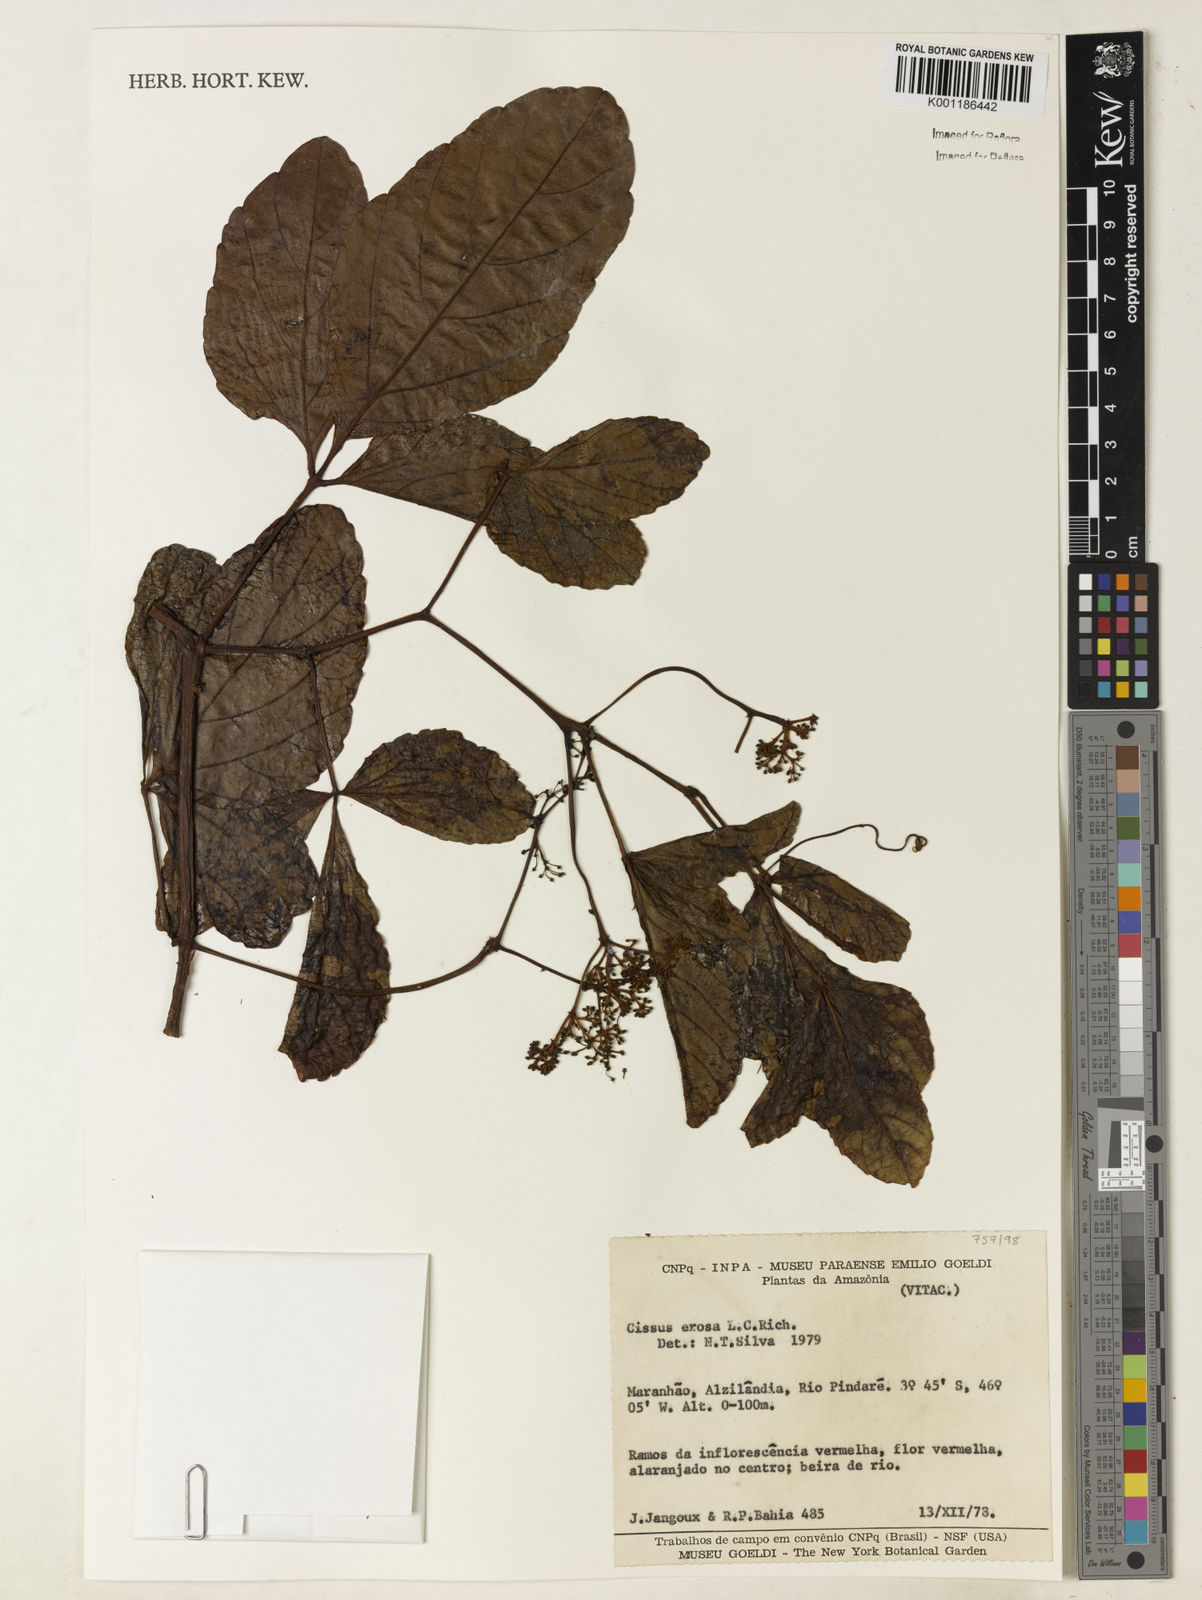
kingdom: Plantae
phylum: Tracheophyta
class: Magnoliopsida
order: Vitales
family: Vitaceae
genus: Cissus
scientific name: Cissus erosa
